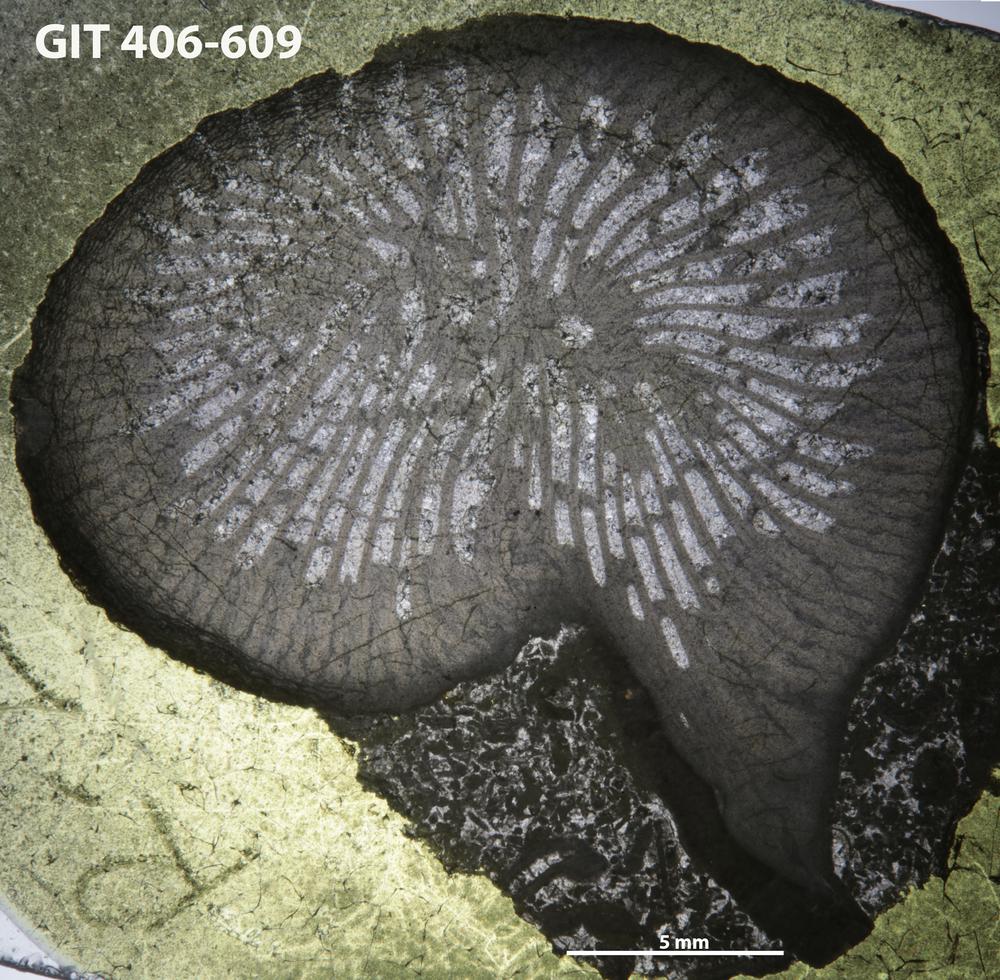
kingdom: Animalia
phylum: Cnidaria
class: Anthozoa
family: Kodonophyllidae
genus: Kodonophyllum
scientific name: Kodonophyllum
